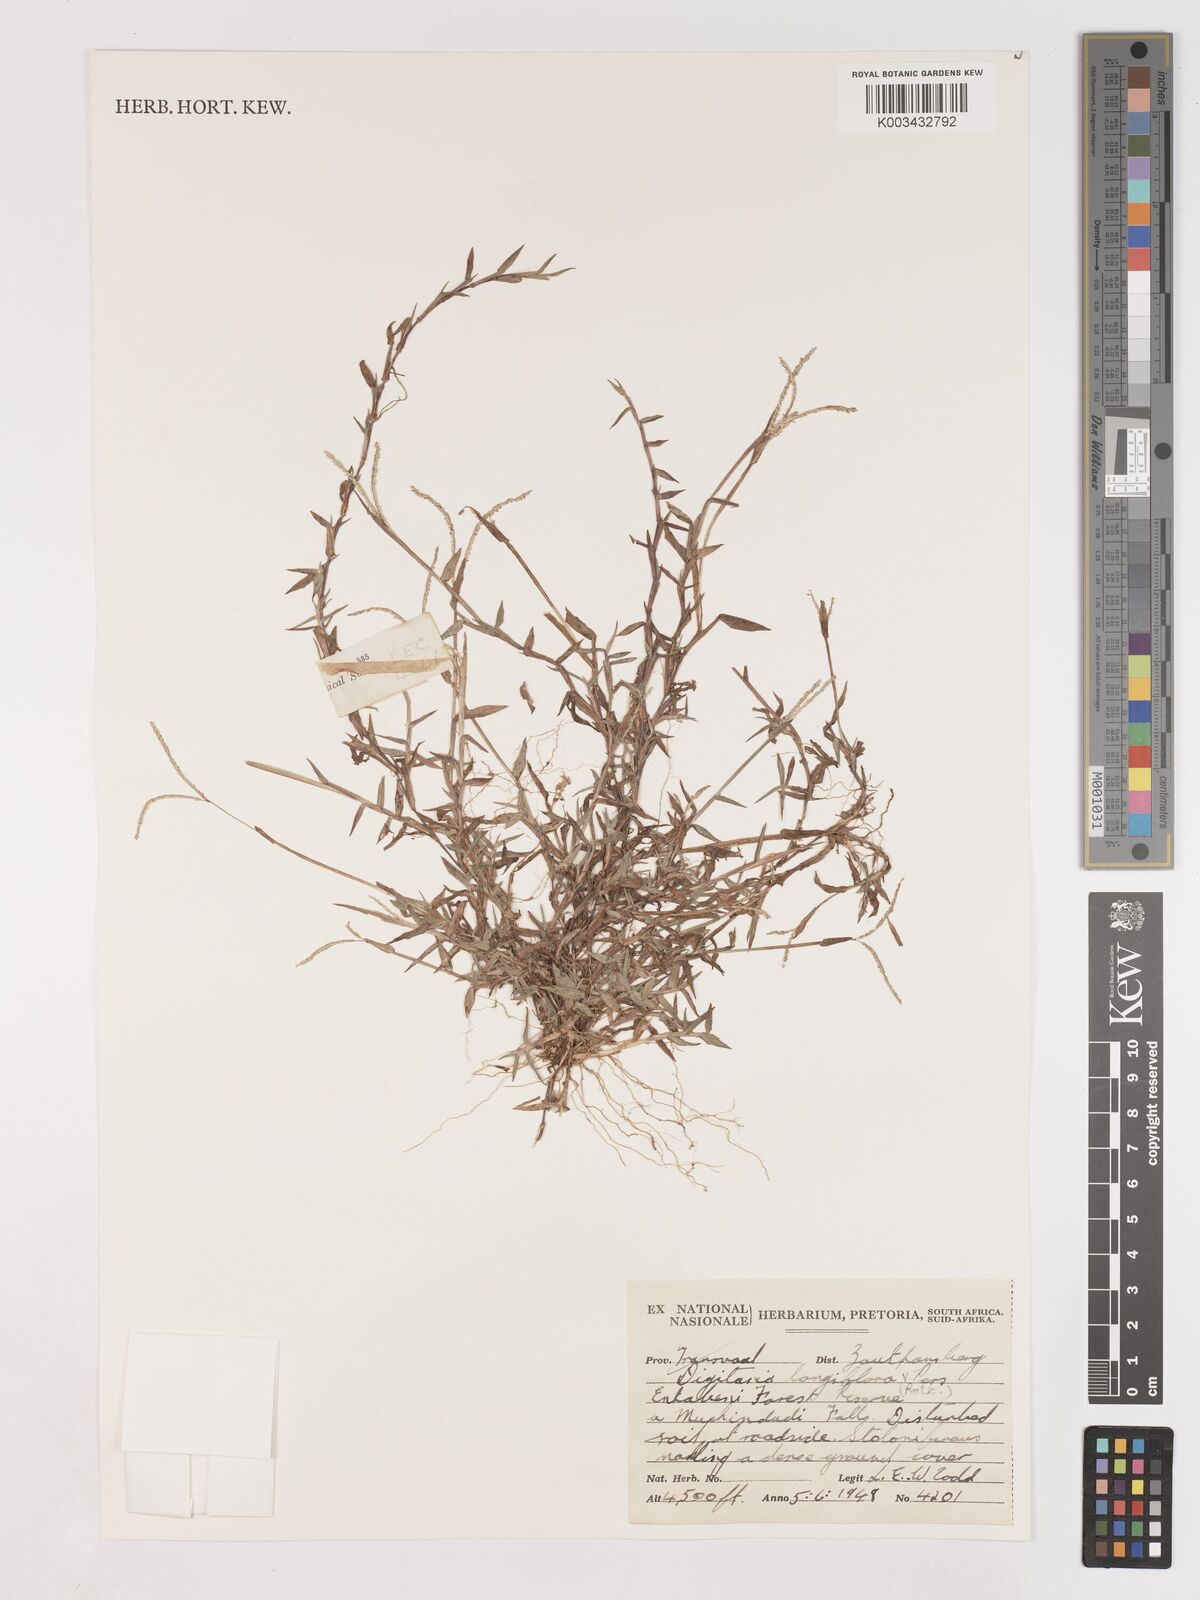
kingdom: Plantae
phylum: Tracheophyta
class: Liliopsida
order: Poales
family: Poaceae
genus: Digitaria
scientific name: Digitaria longiflora
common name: Wire crabgrass
